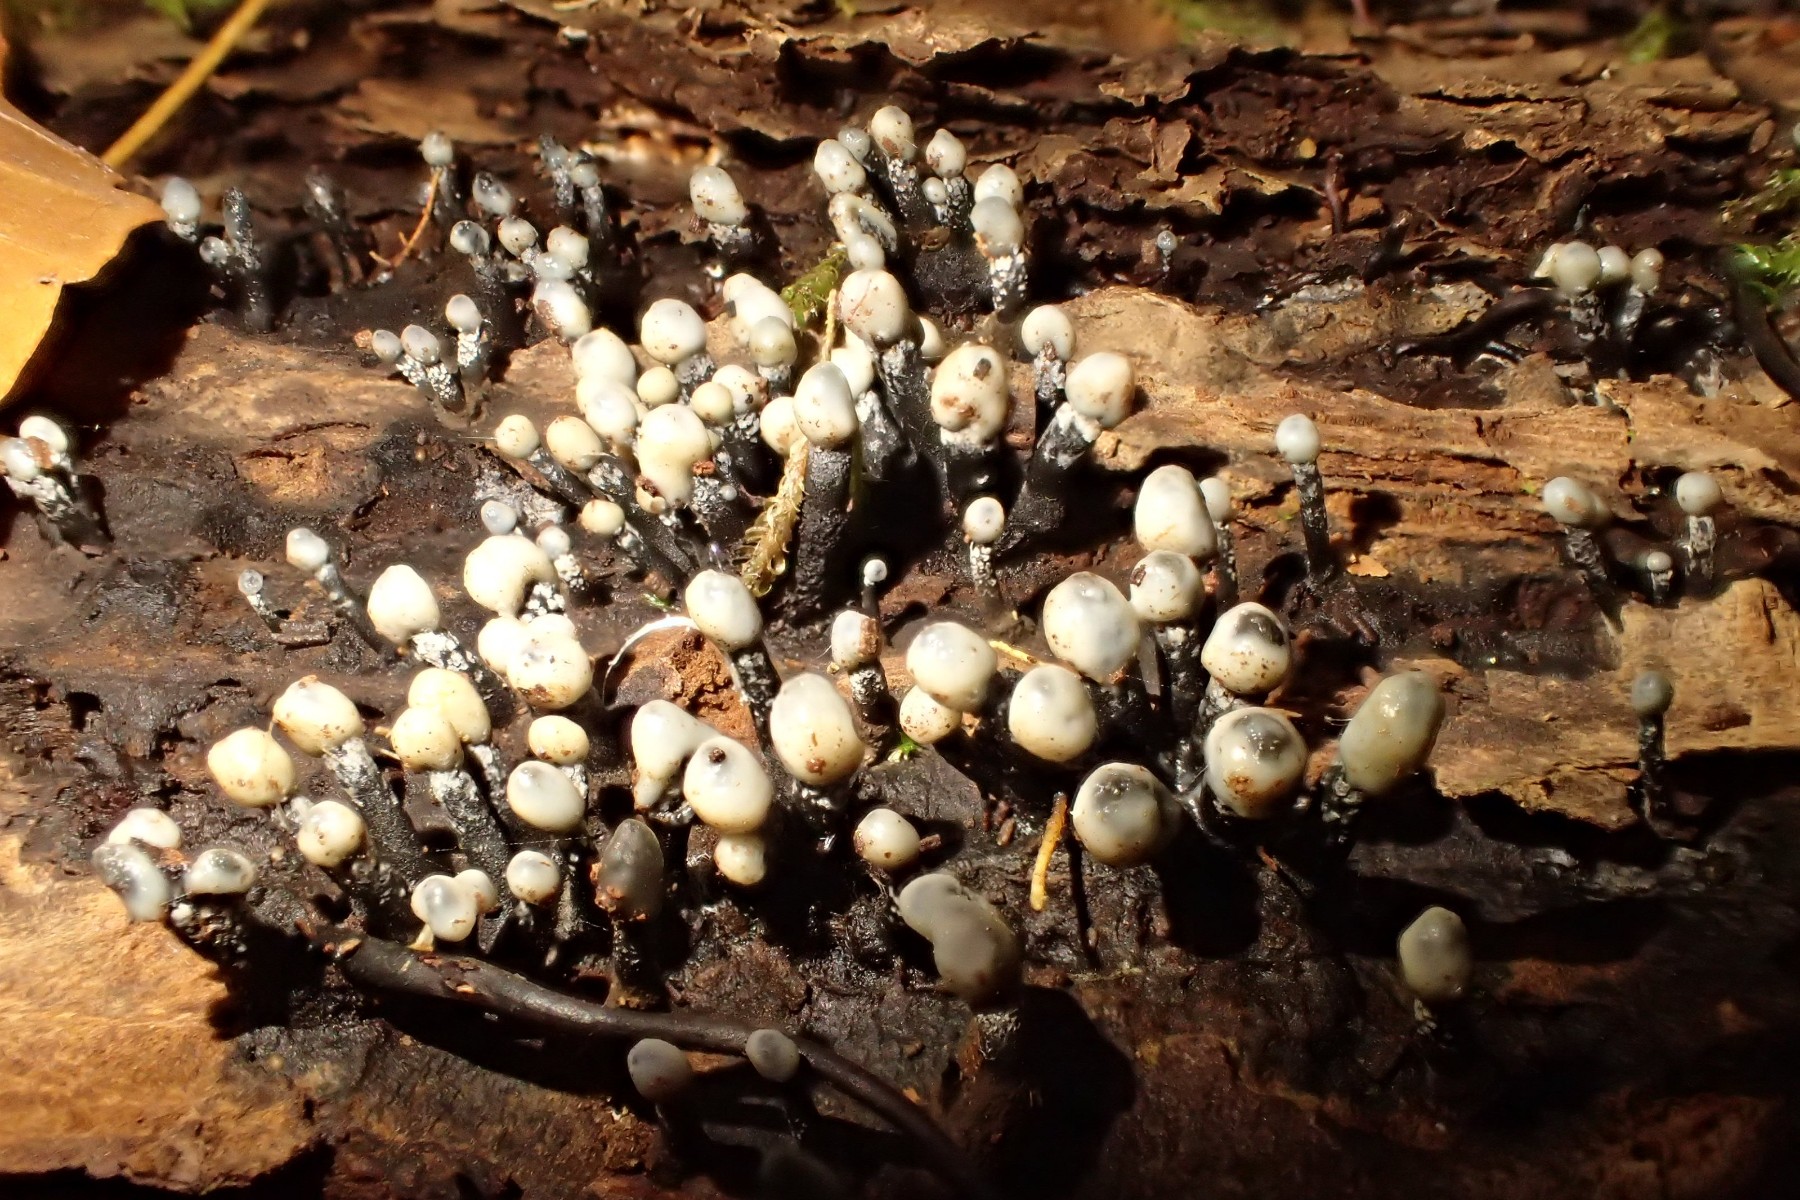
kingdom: Fungi
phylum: Ascomycota
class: Leotiomycetes
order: Helotiales
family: Bulgariaceae
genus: Holwaya
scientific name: Holwaya mucida
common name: lindeskive
